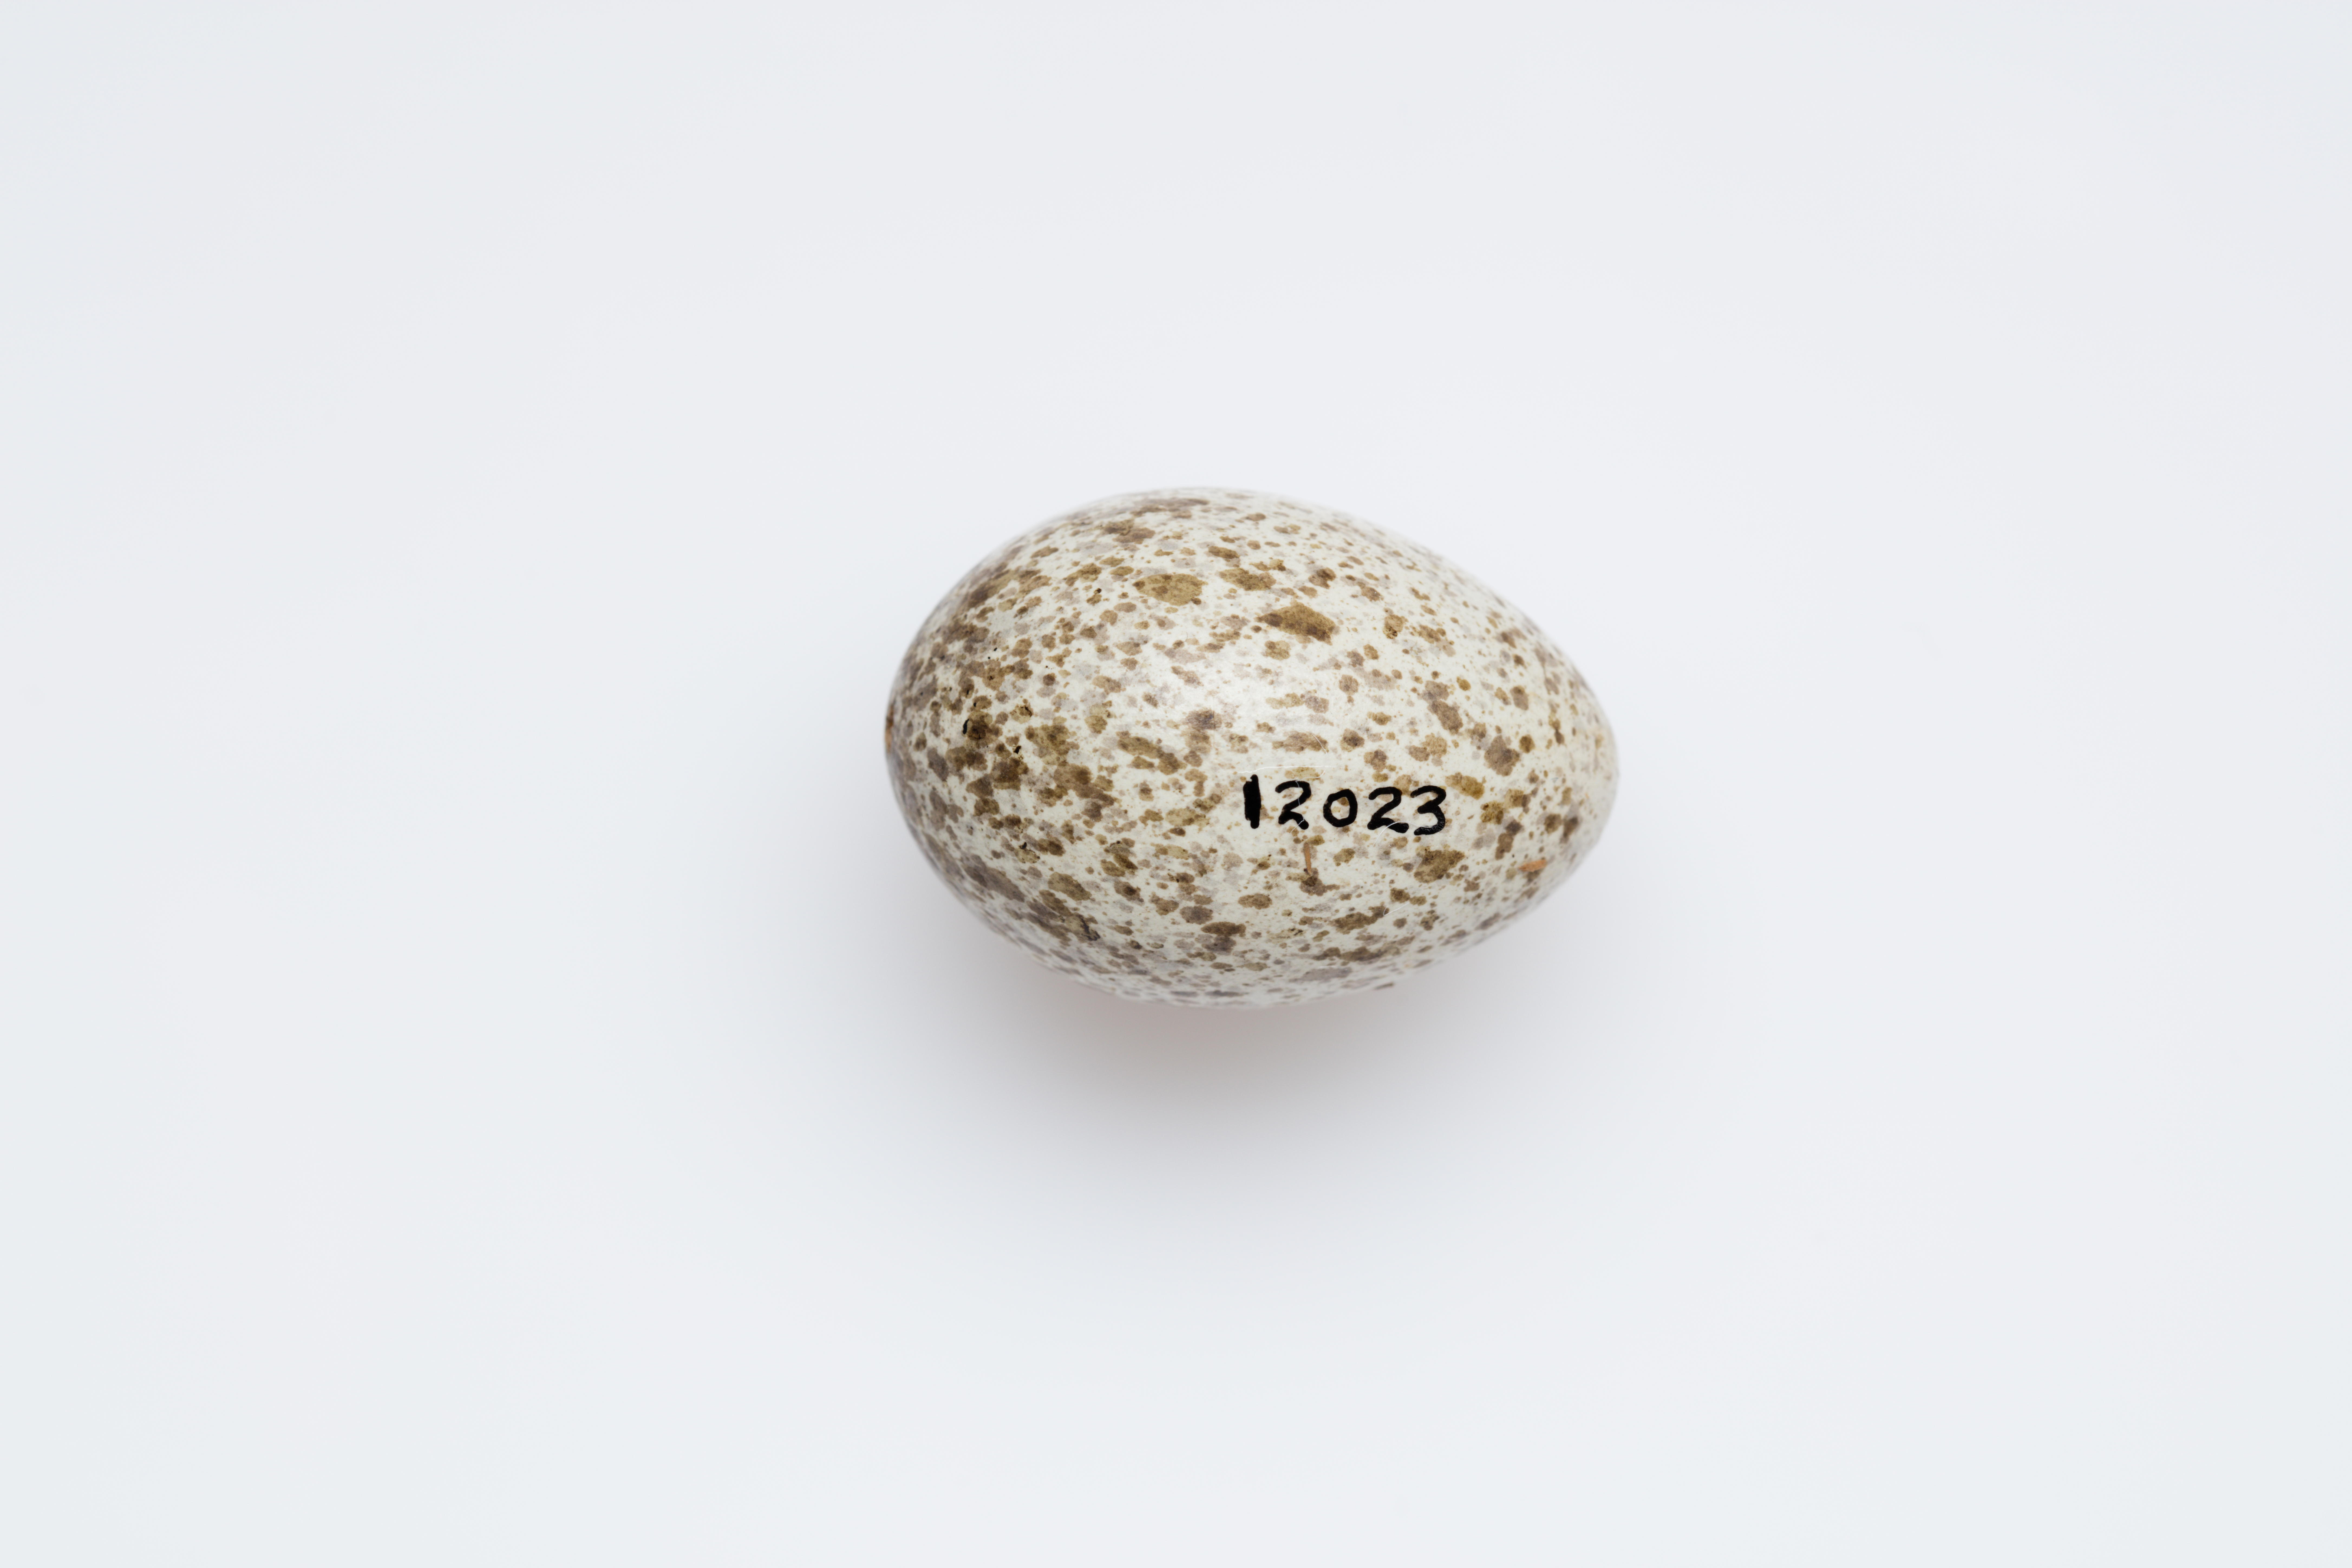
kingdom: Animalia
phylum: Chordata
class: Aves
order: Passeriformes
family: Psophodidae
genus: Cinclosoma
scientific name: Cinclosoma castaneothorax
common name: Chestnut-breasted quail-thrush
